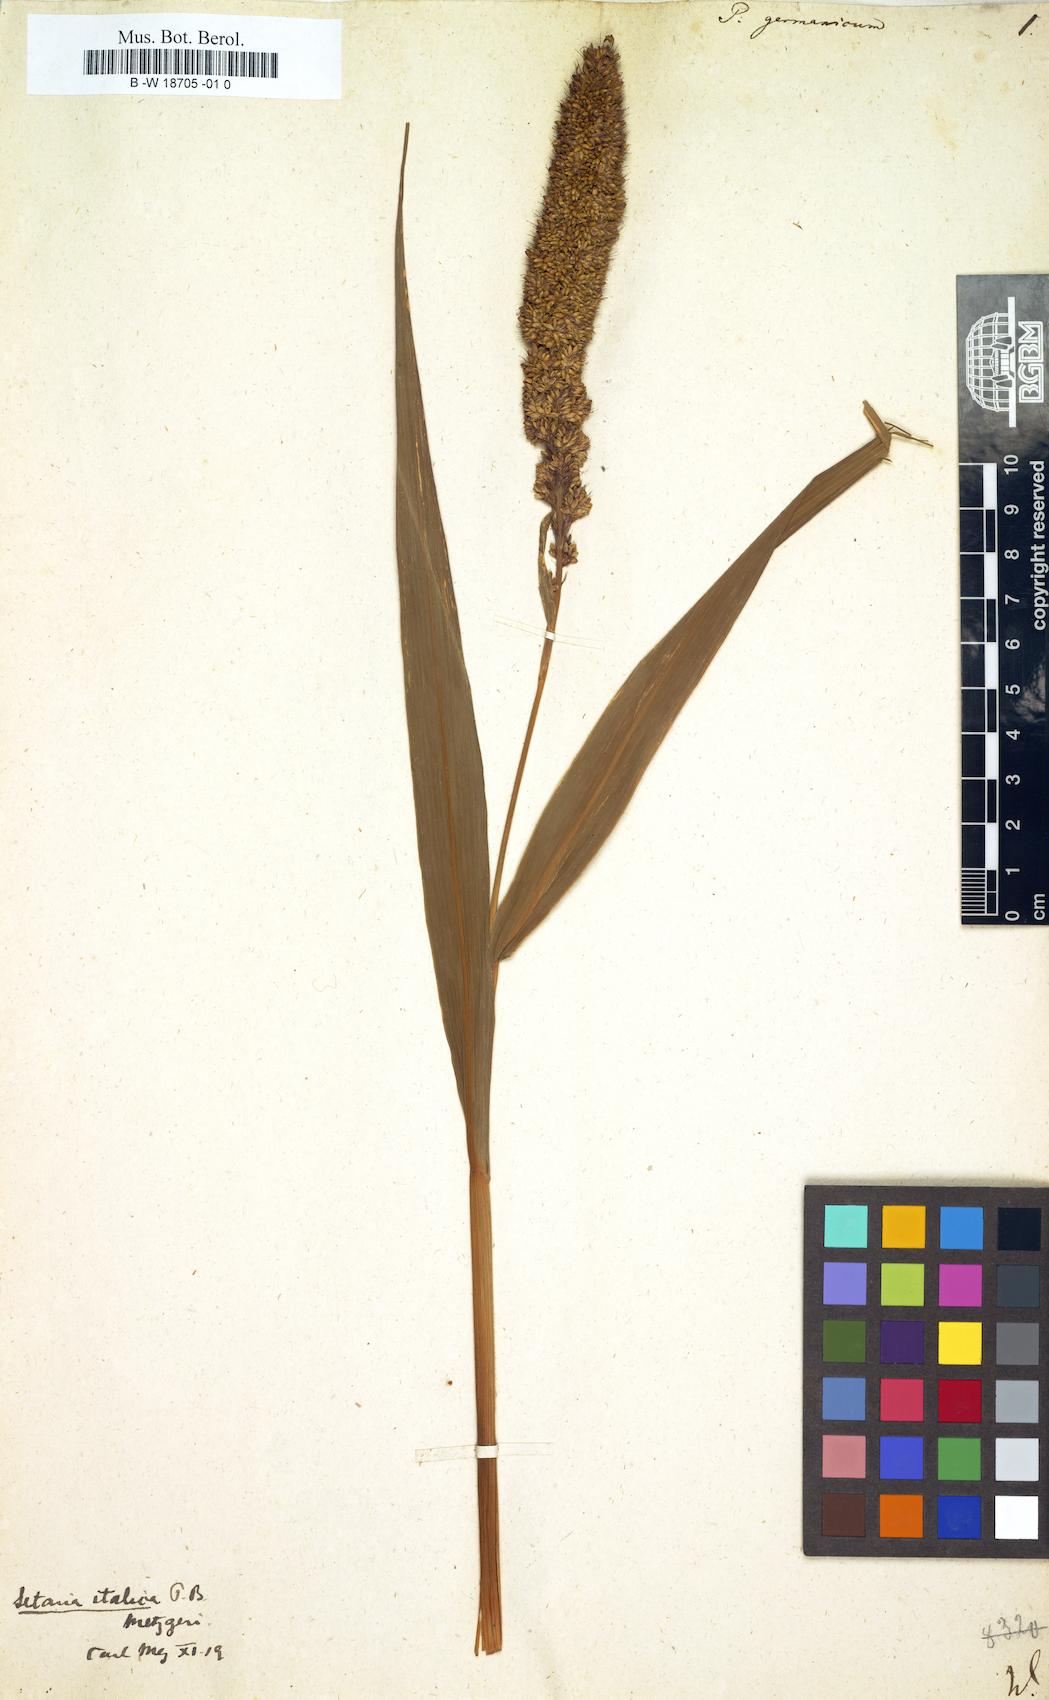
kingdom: Plantae
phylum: Tracheophyta
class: Liliopsida
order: Poales
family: Poaceae
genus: Setaria
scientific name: Setaria italica
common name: Foxtail bristle-grass
